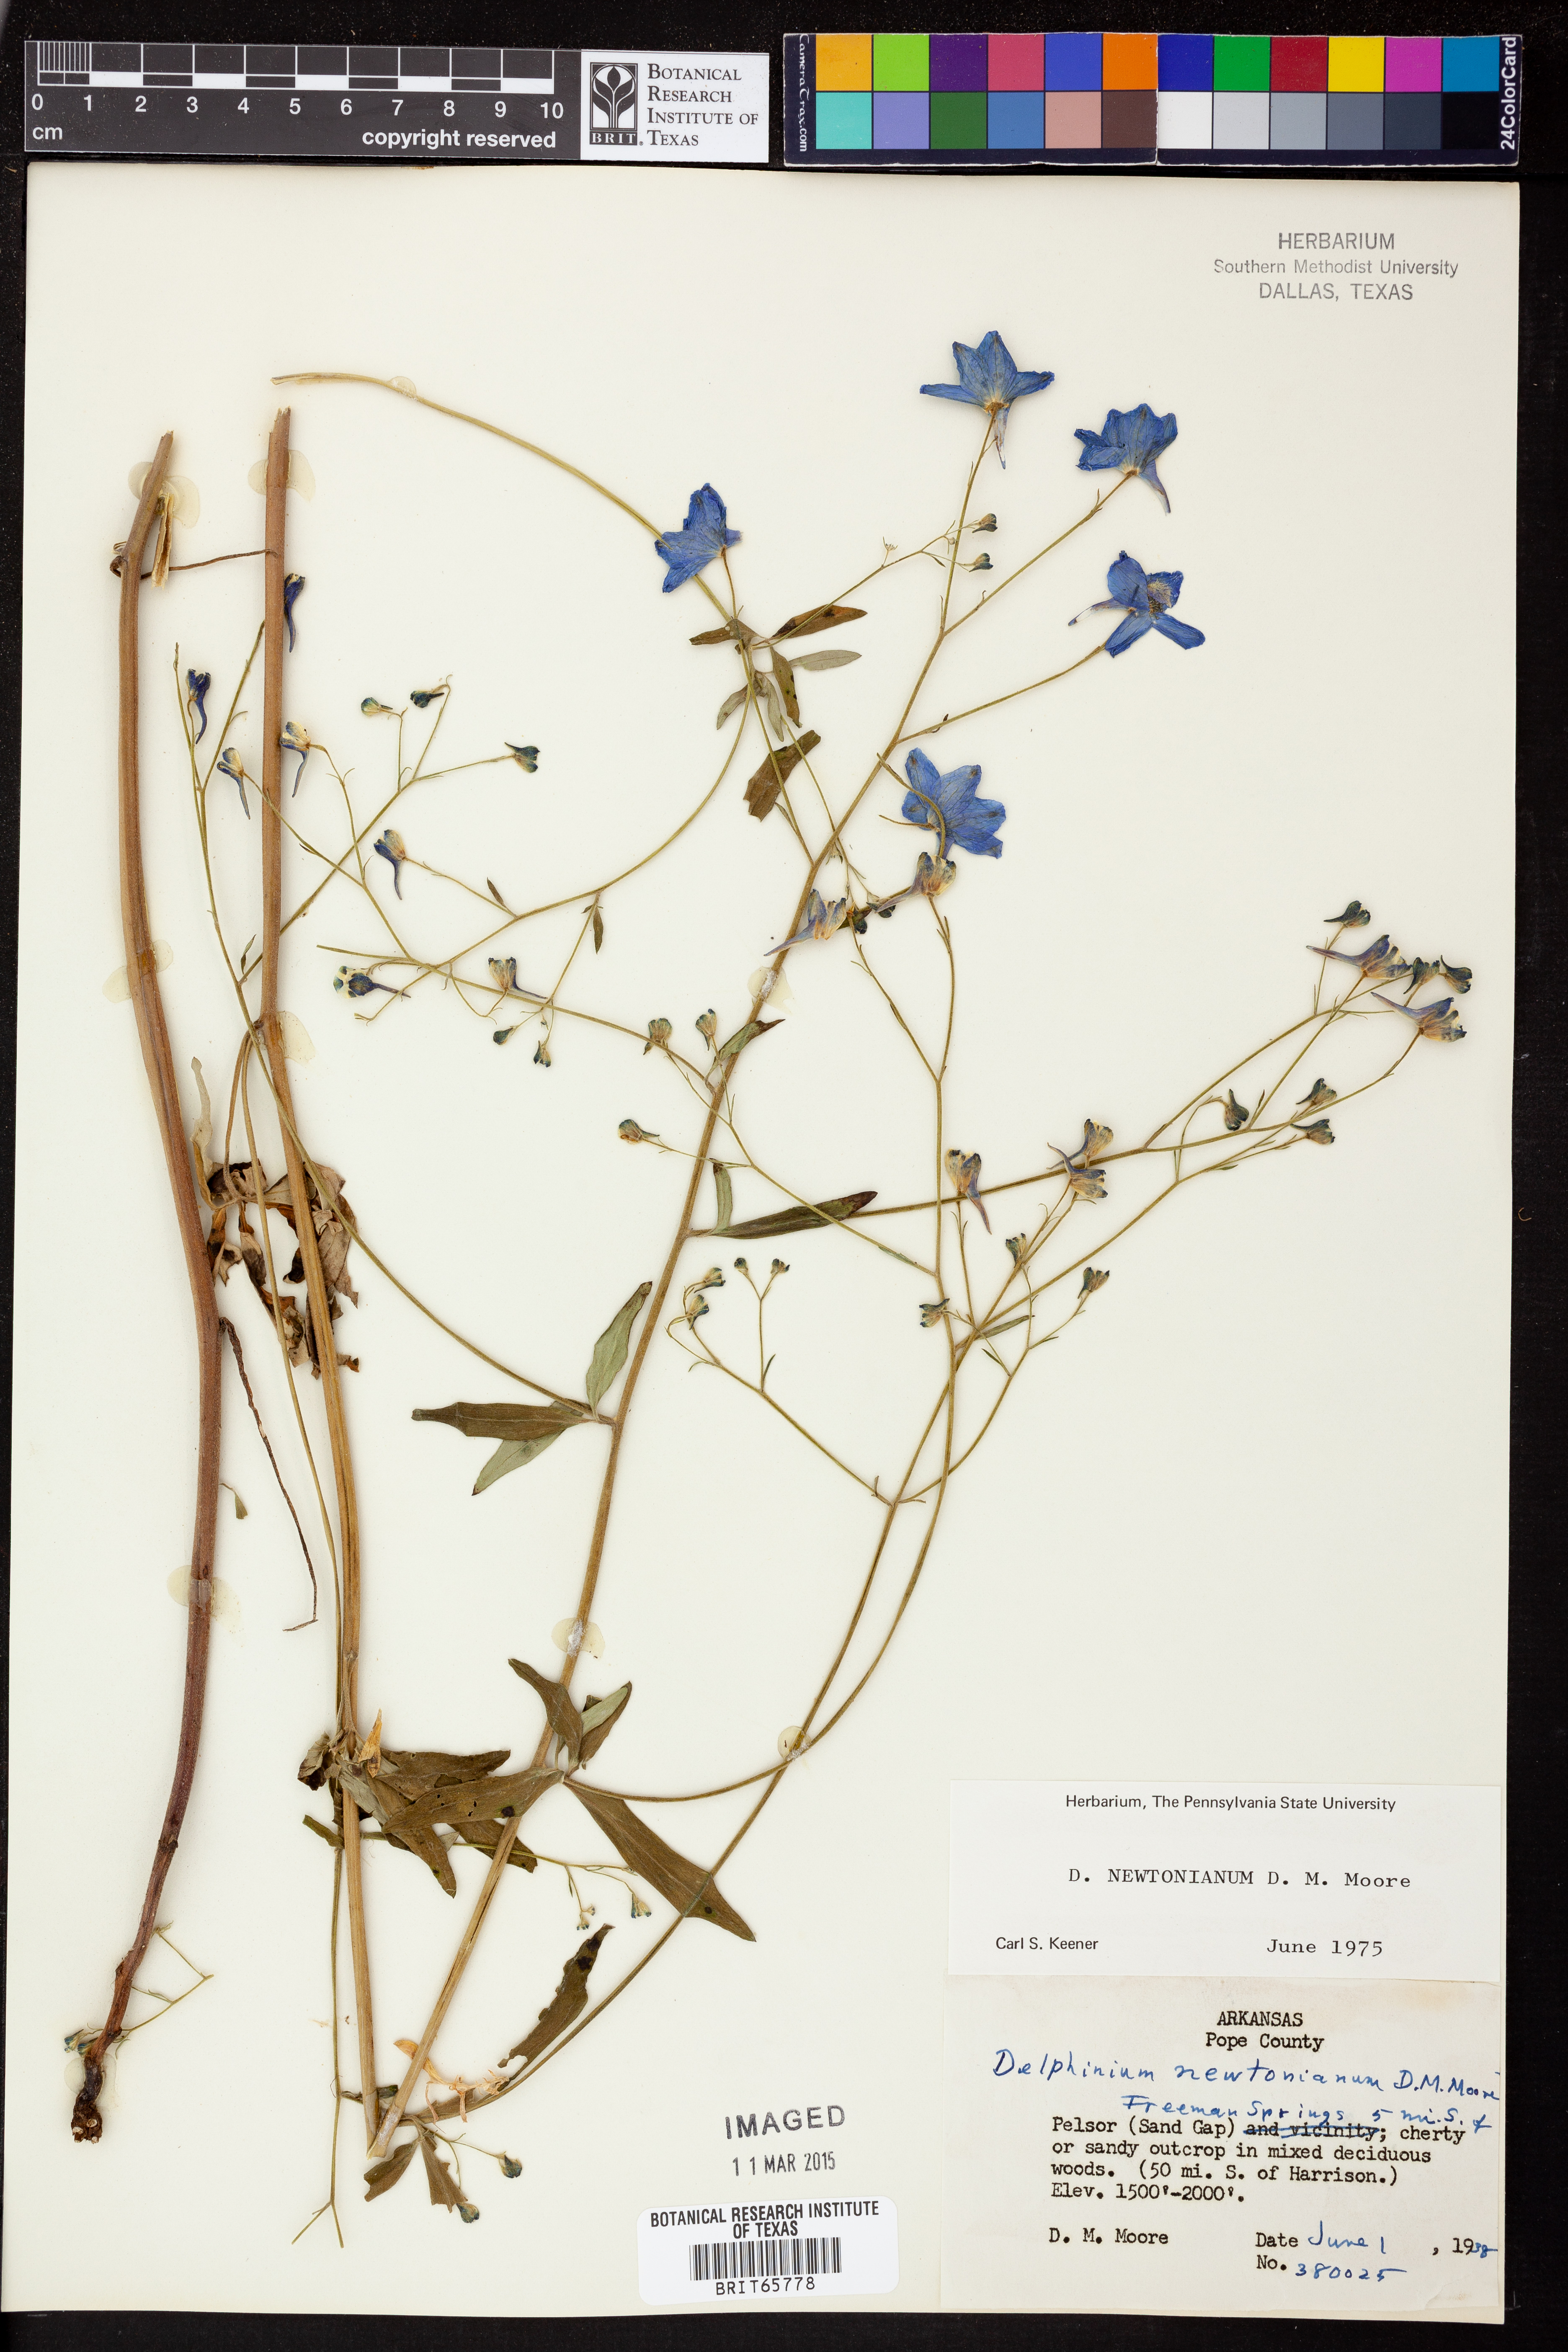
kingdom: Plantae
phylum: Tracheophyta
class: Magnoliopsida
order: Ranunculales
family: Ranunculaceae
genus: Delphinium
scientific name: Delphinium newtonianum
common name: Ozark larkspur
